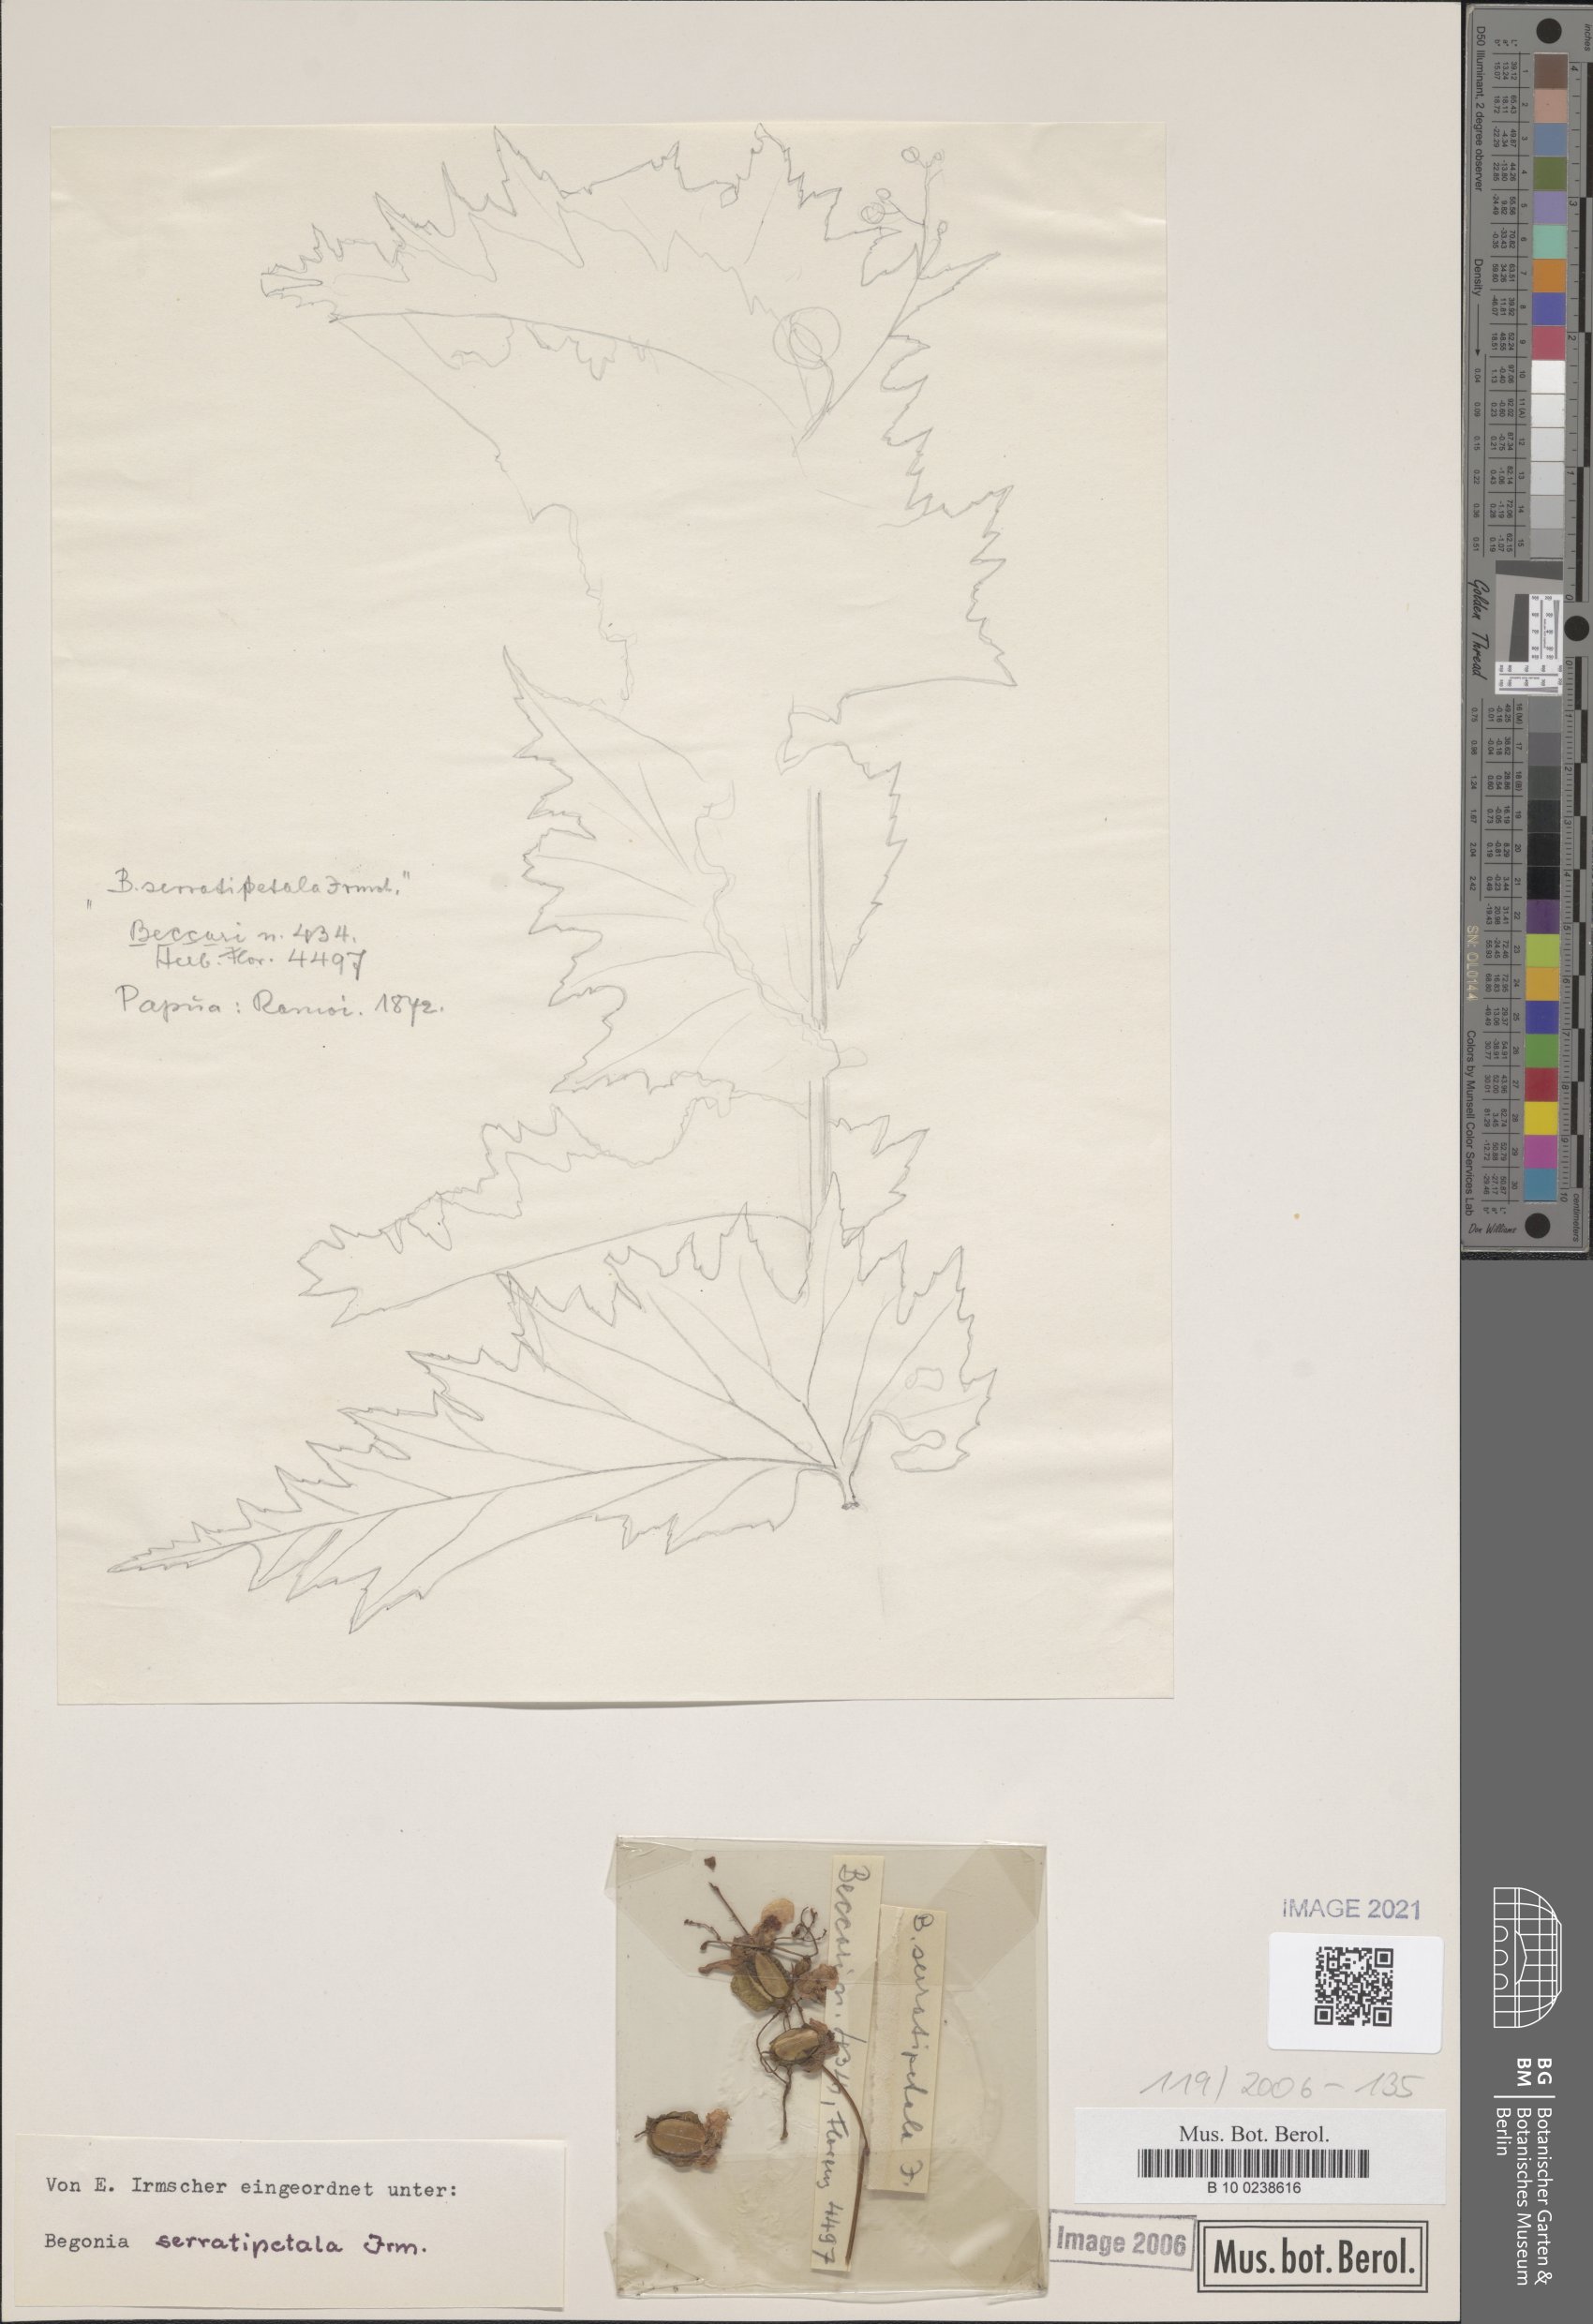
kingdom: Plantae
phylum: Tracheophyta
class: Magnoliopsida
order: Cucurbitales
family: Begoniaceae
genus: Begonia
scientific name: Begonia serratipetala
